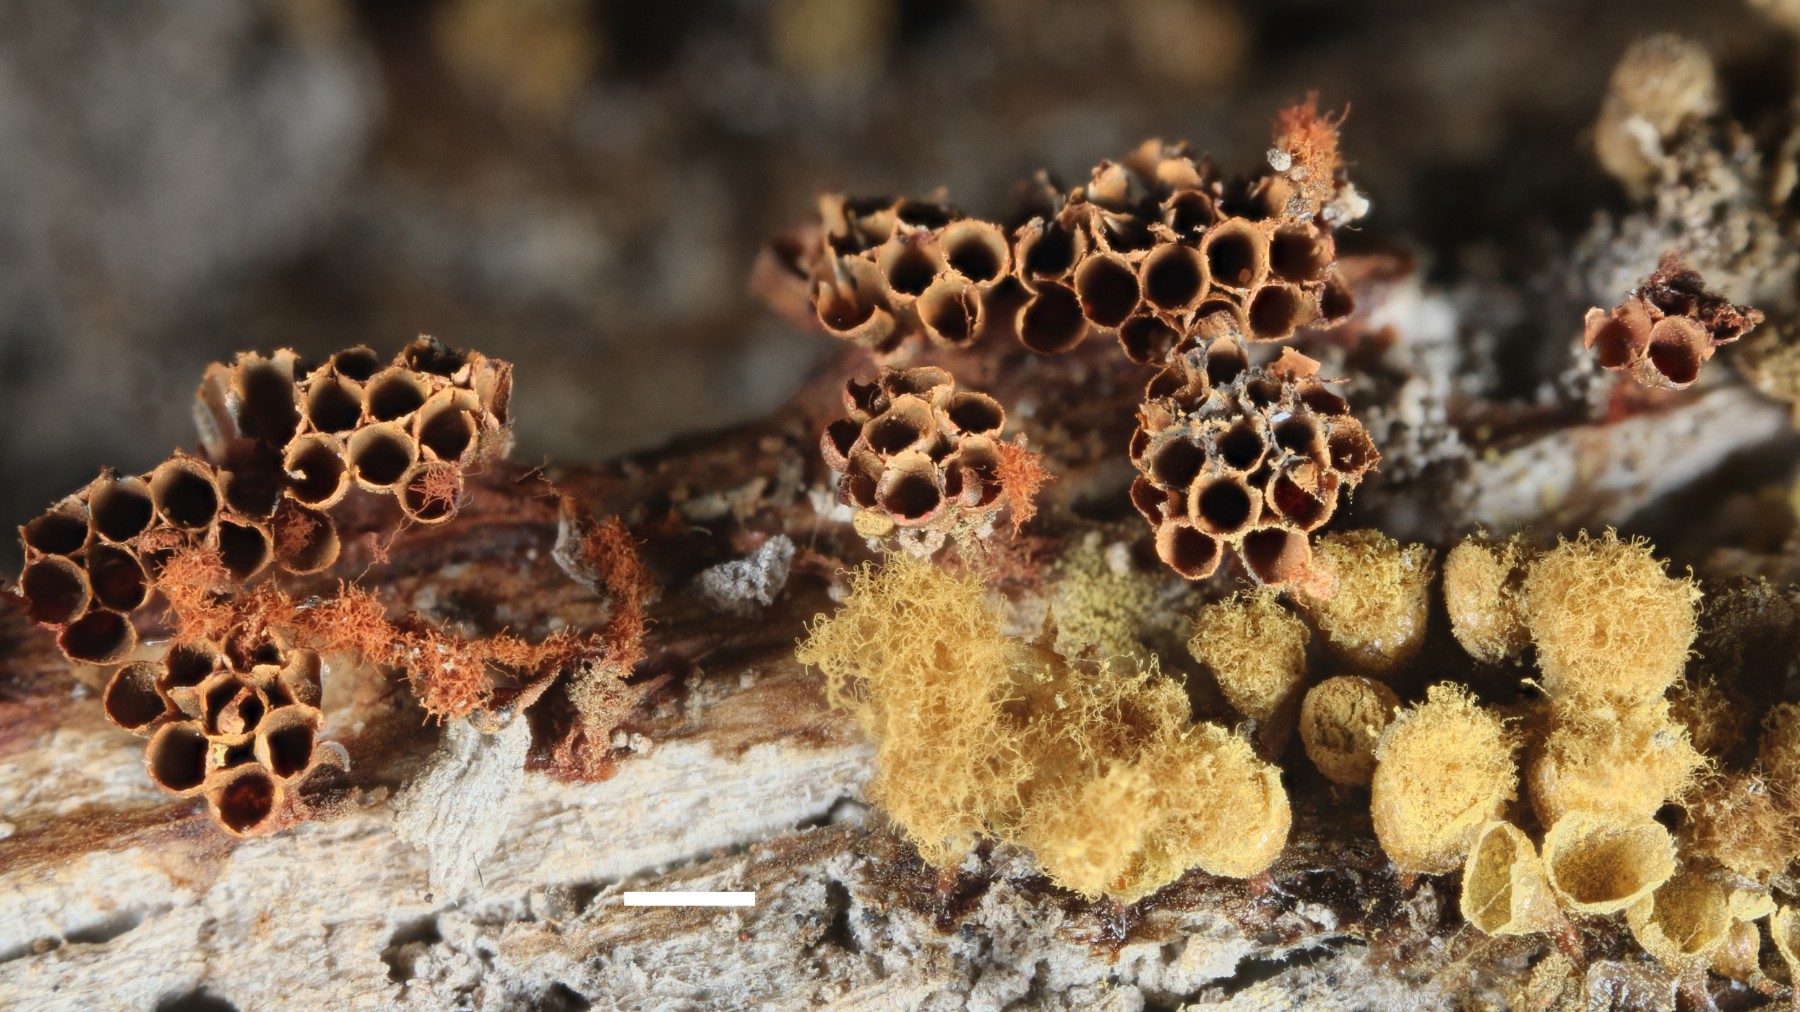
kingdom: Protozoa
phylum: Mycetozoa
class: Myxomycetes
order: Trichiales
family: Trichiaceae
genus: Metatrichia
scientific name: Metatrichia vesparia
